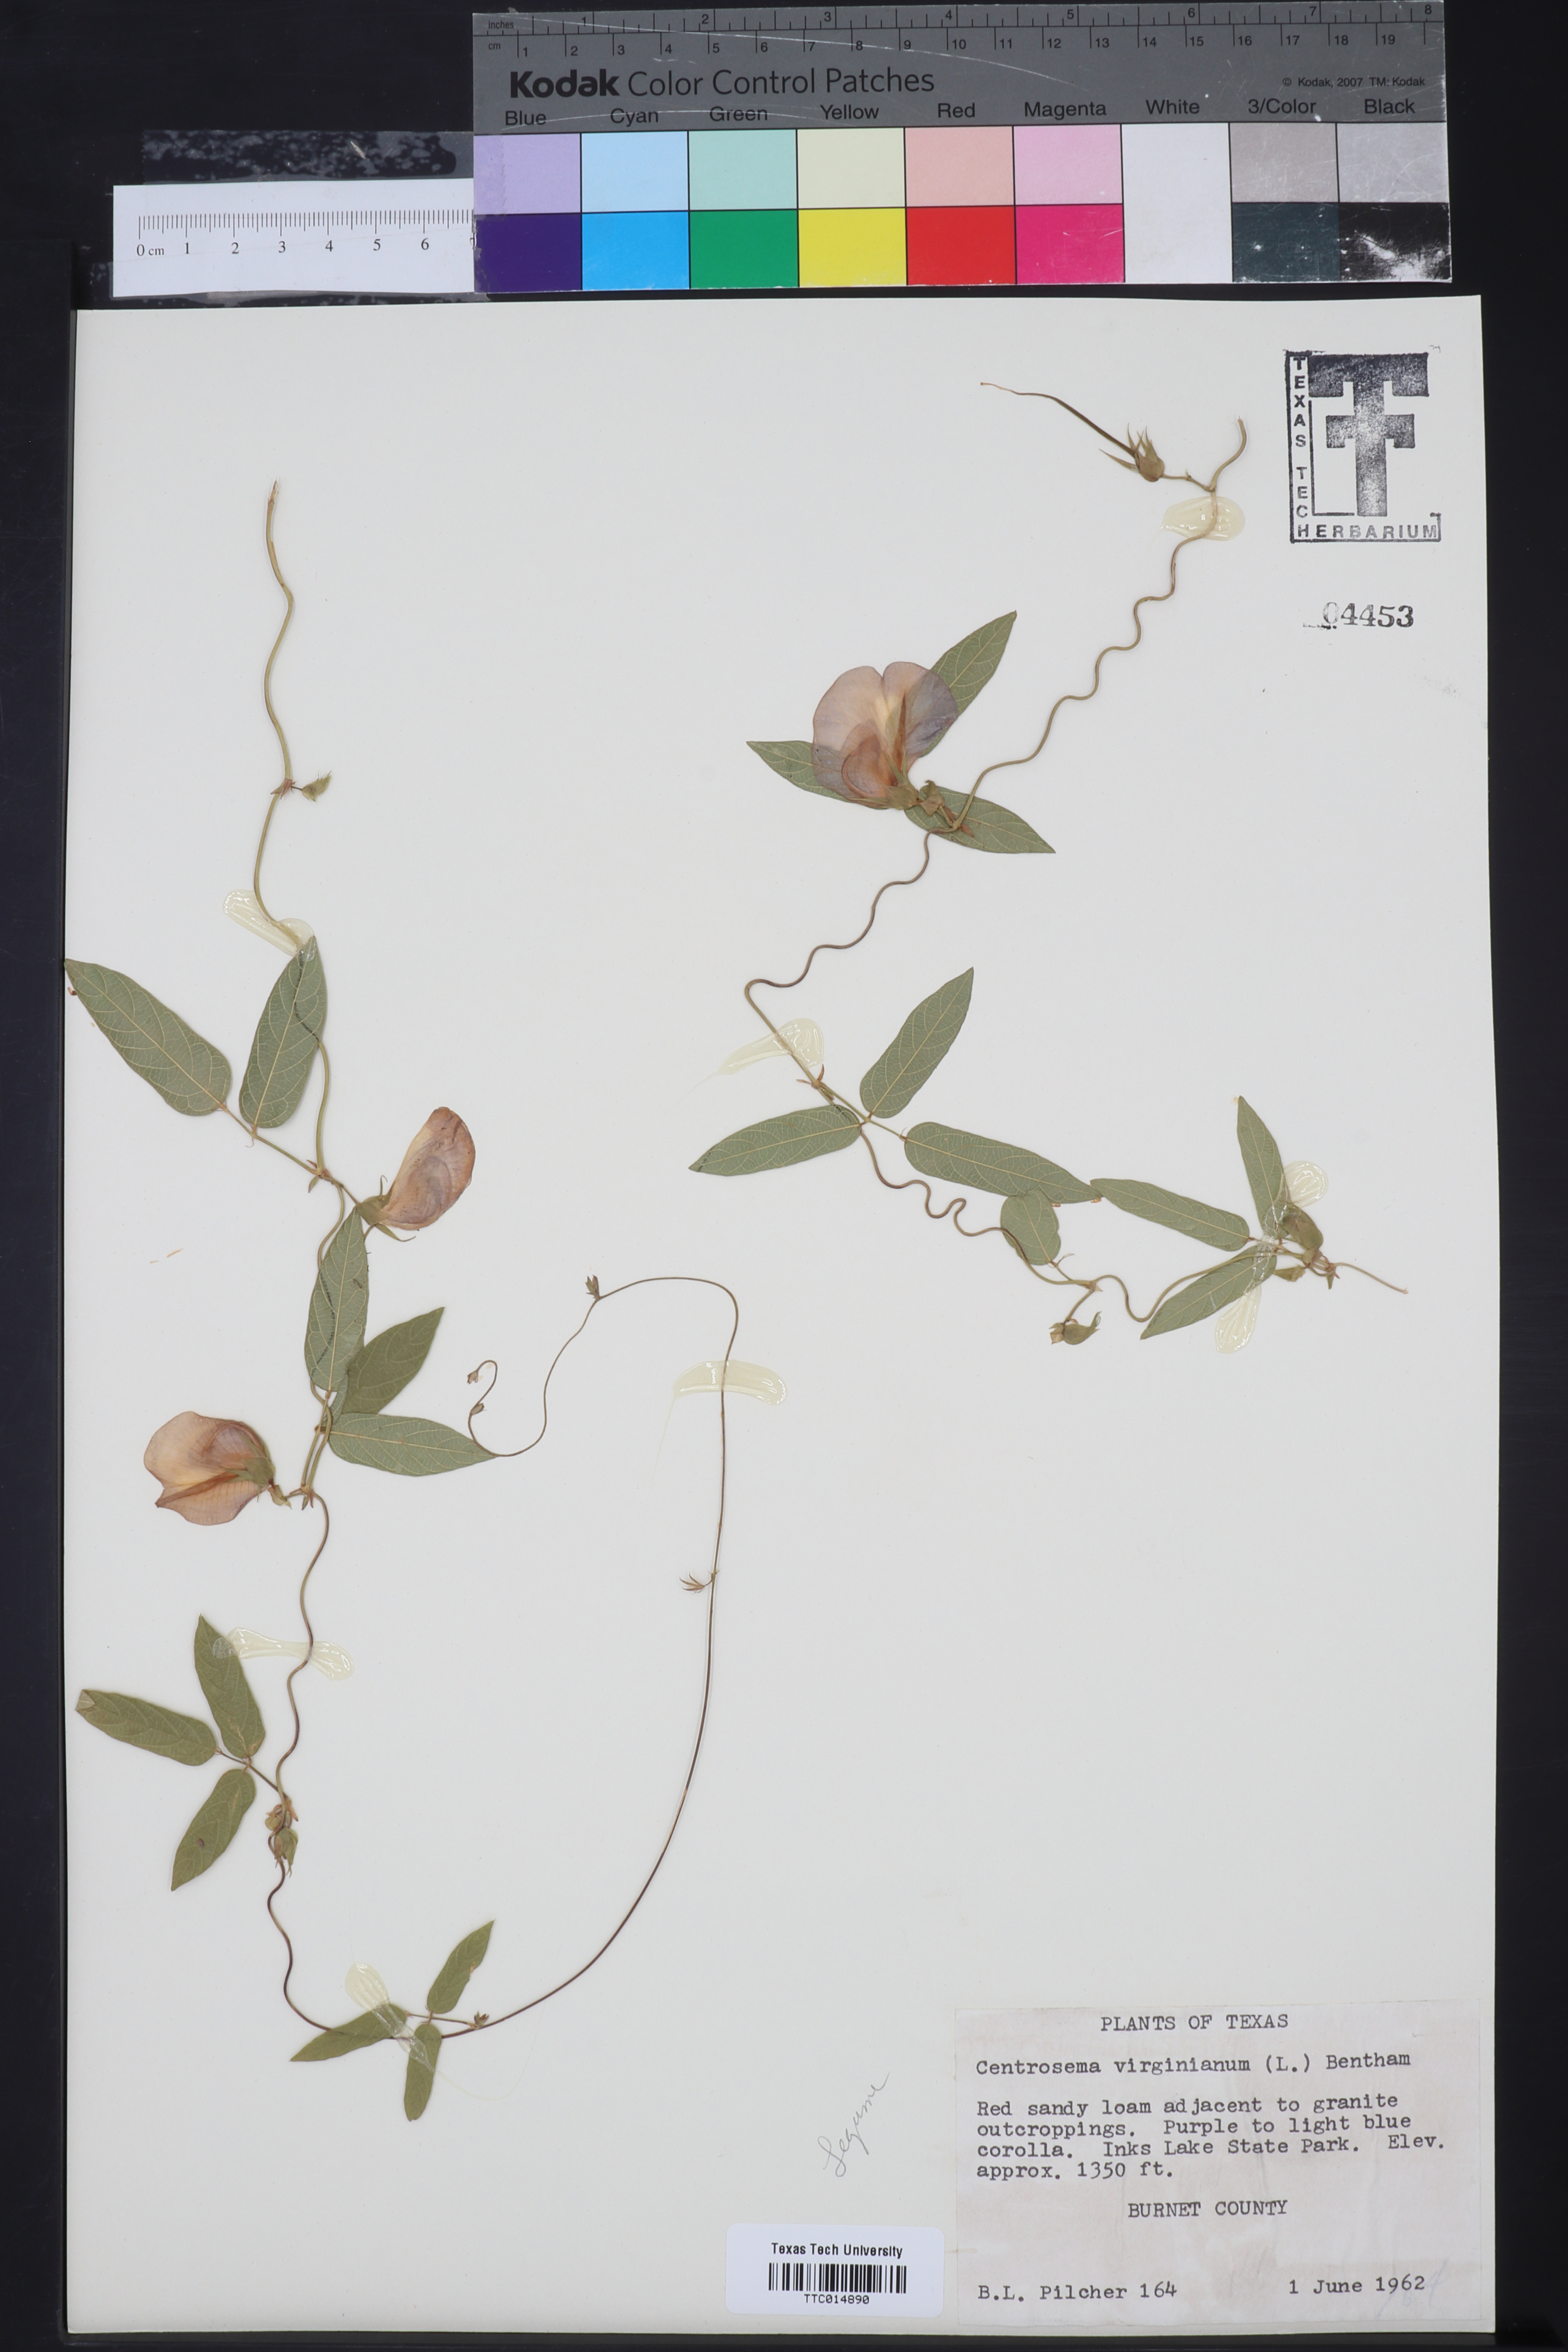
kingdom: Plantae
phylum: Tracheophyta
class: Magnoliopsida
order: Fabales
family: Fabaceae
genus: Centrosema
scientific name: Centrosema virginianum
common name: Butterfly-pea
